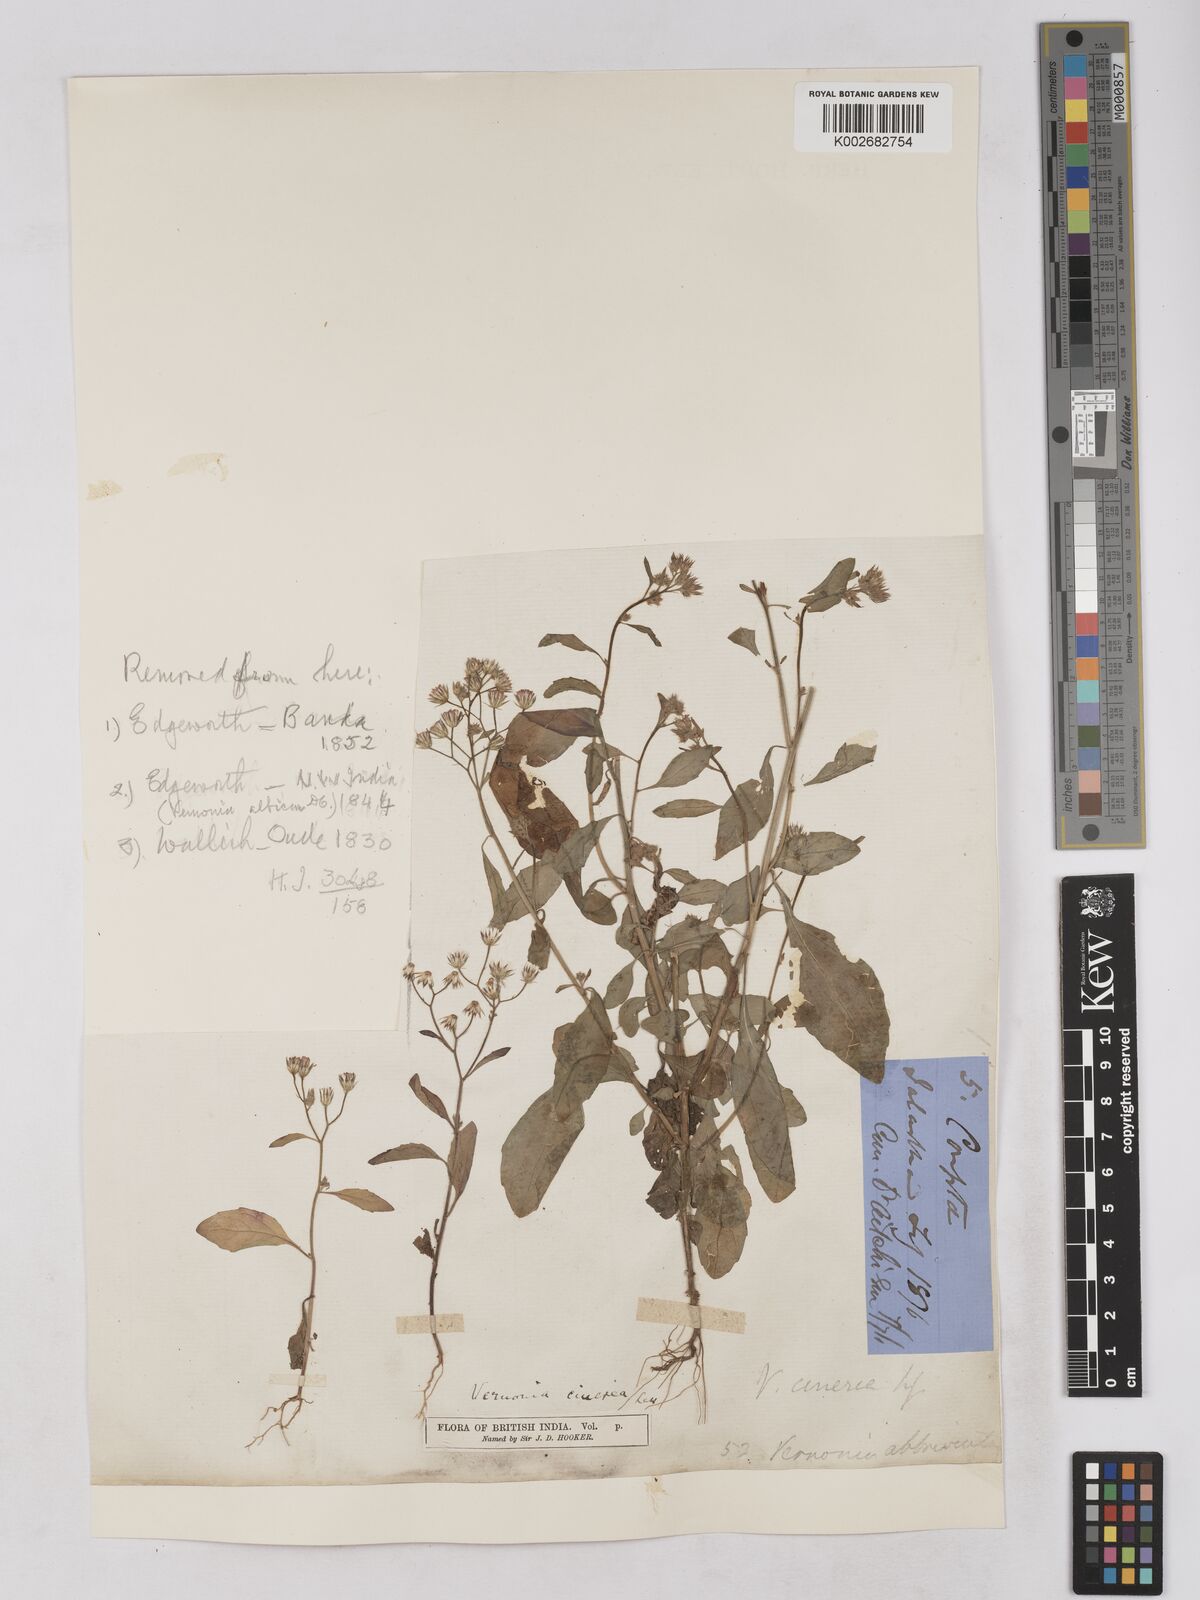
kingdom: Plantae
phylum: Tracheophyta
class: Magnoliopsida
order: Asterales
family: Asteraceae
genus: Cyanthillium
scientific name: Cyanthillium cinereum
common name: Little ironweed
